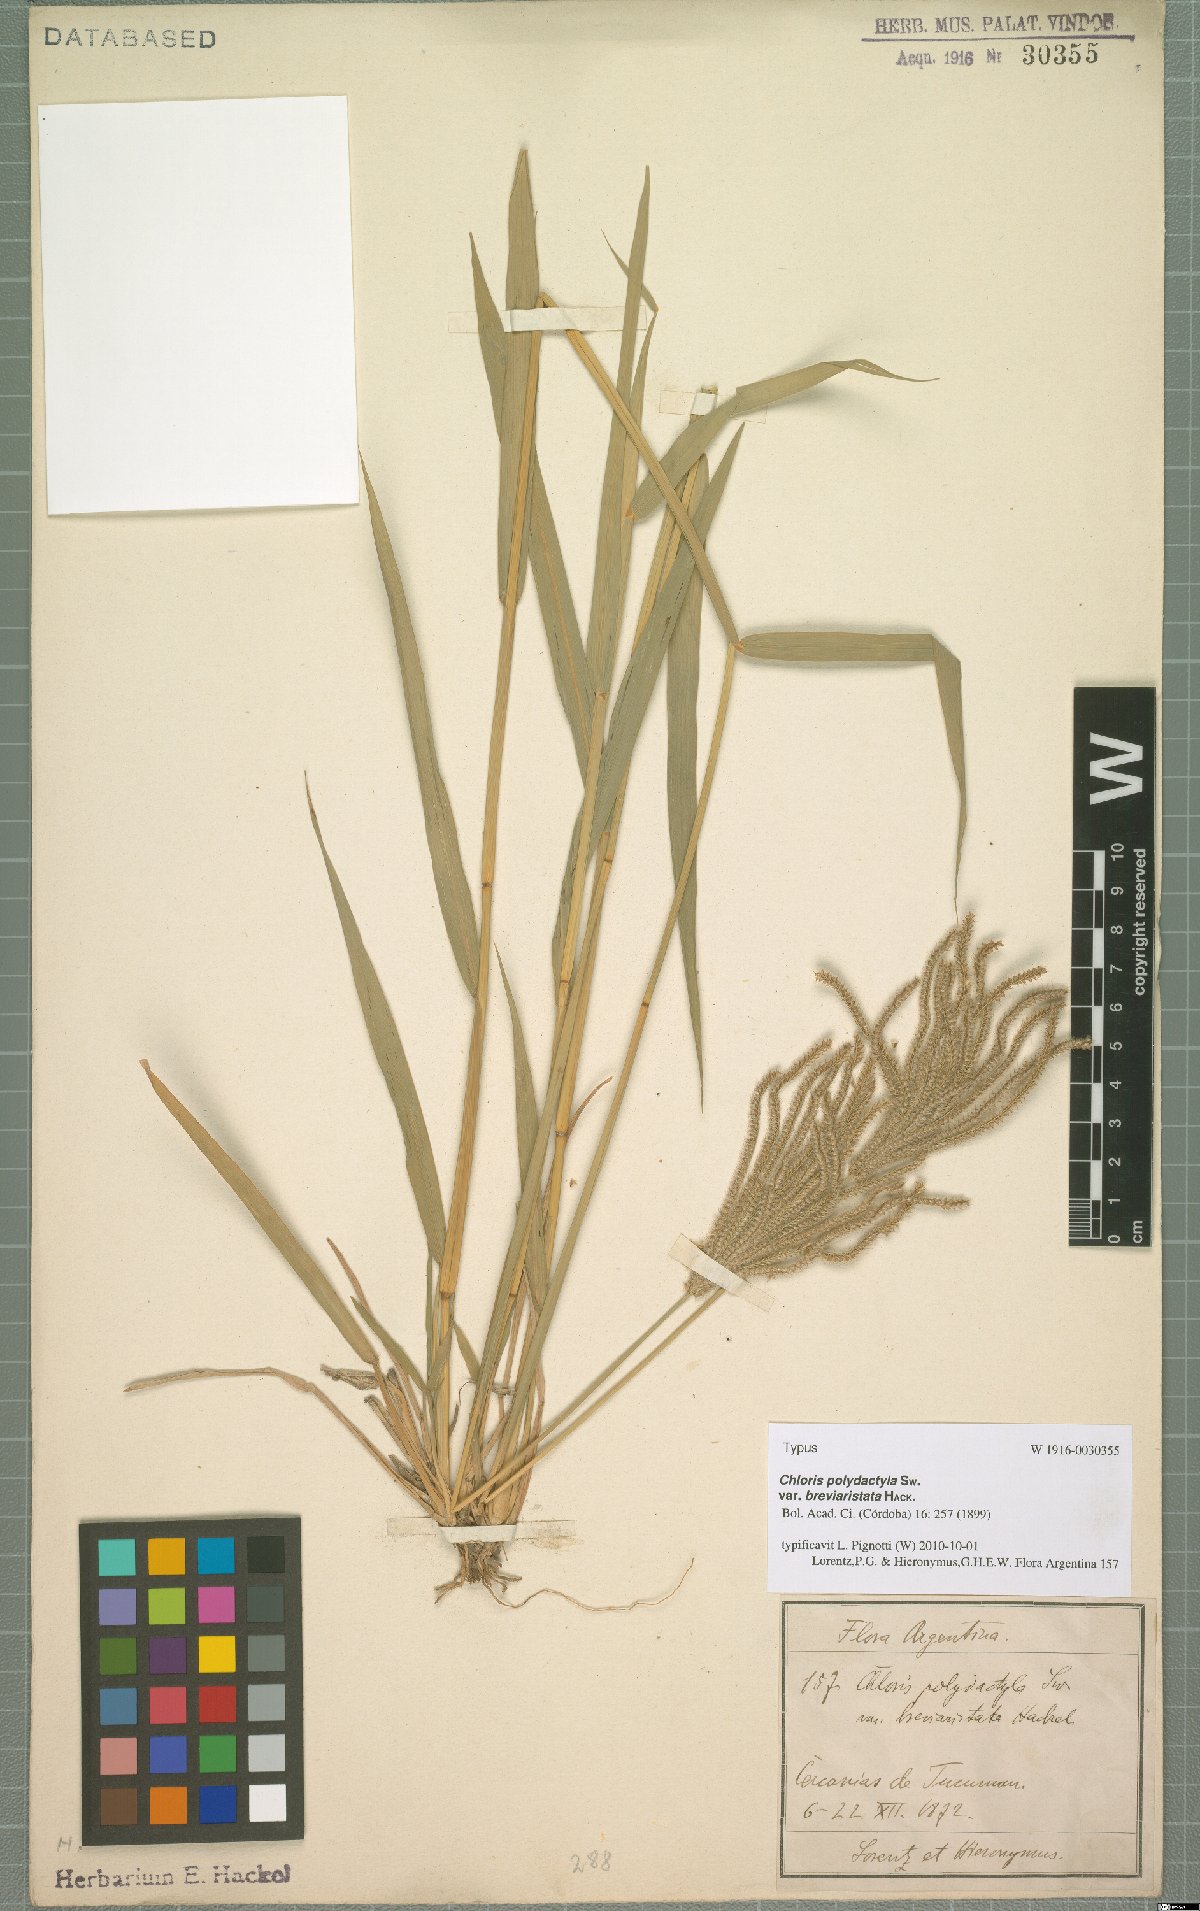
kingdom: Plantae
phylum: Tracheophyta
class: Liliopsida
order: Poales
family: Poaceae
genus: Stapfochloa
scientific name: Stapfochloa elata
